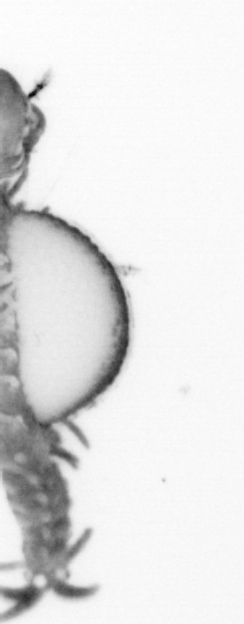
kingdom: Animalia
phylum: Annelida
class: Polychaeta
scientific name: Polychaeta
